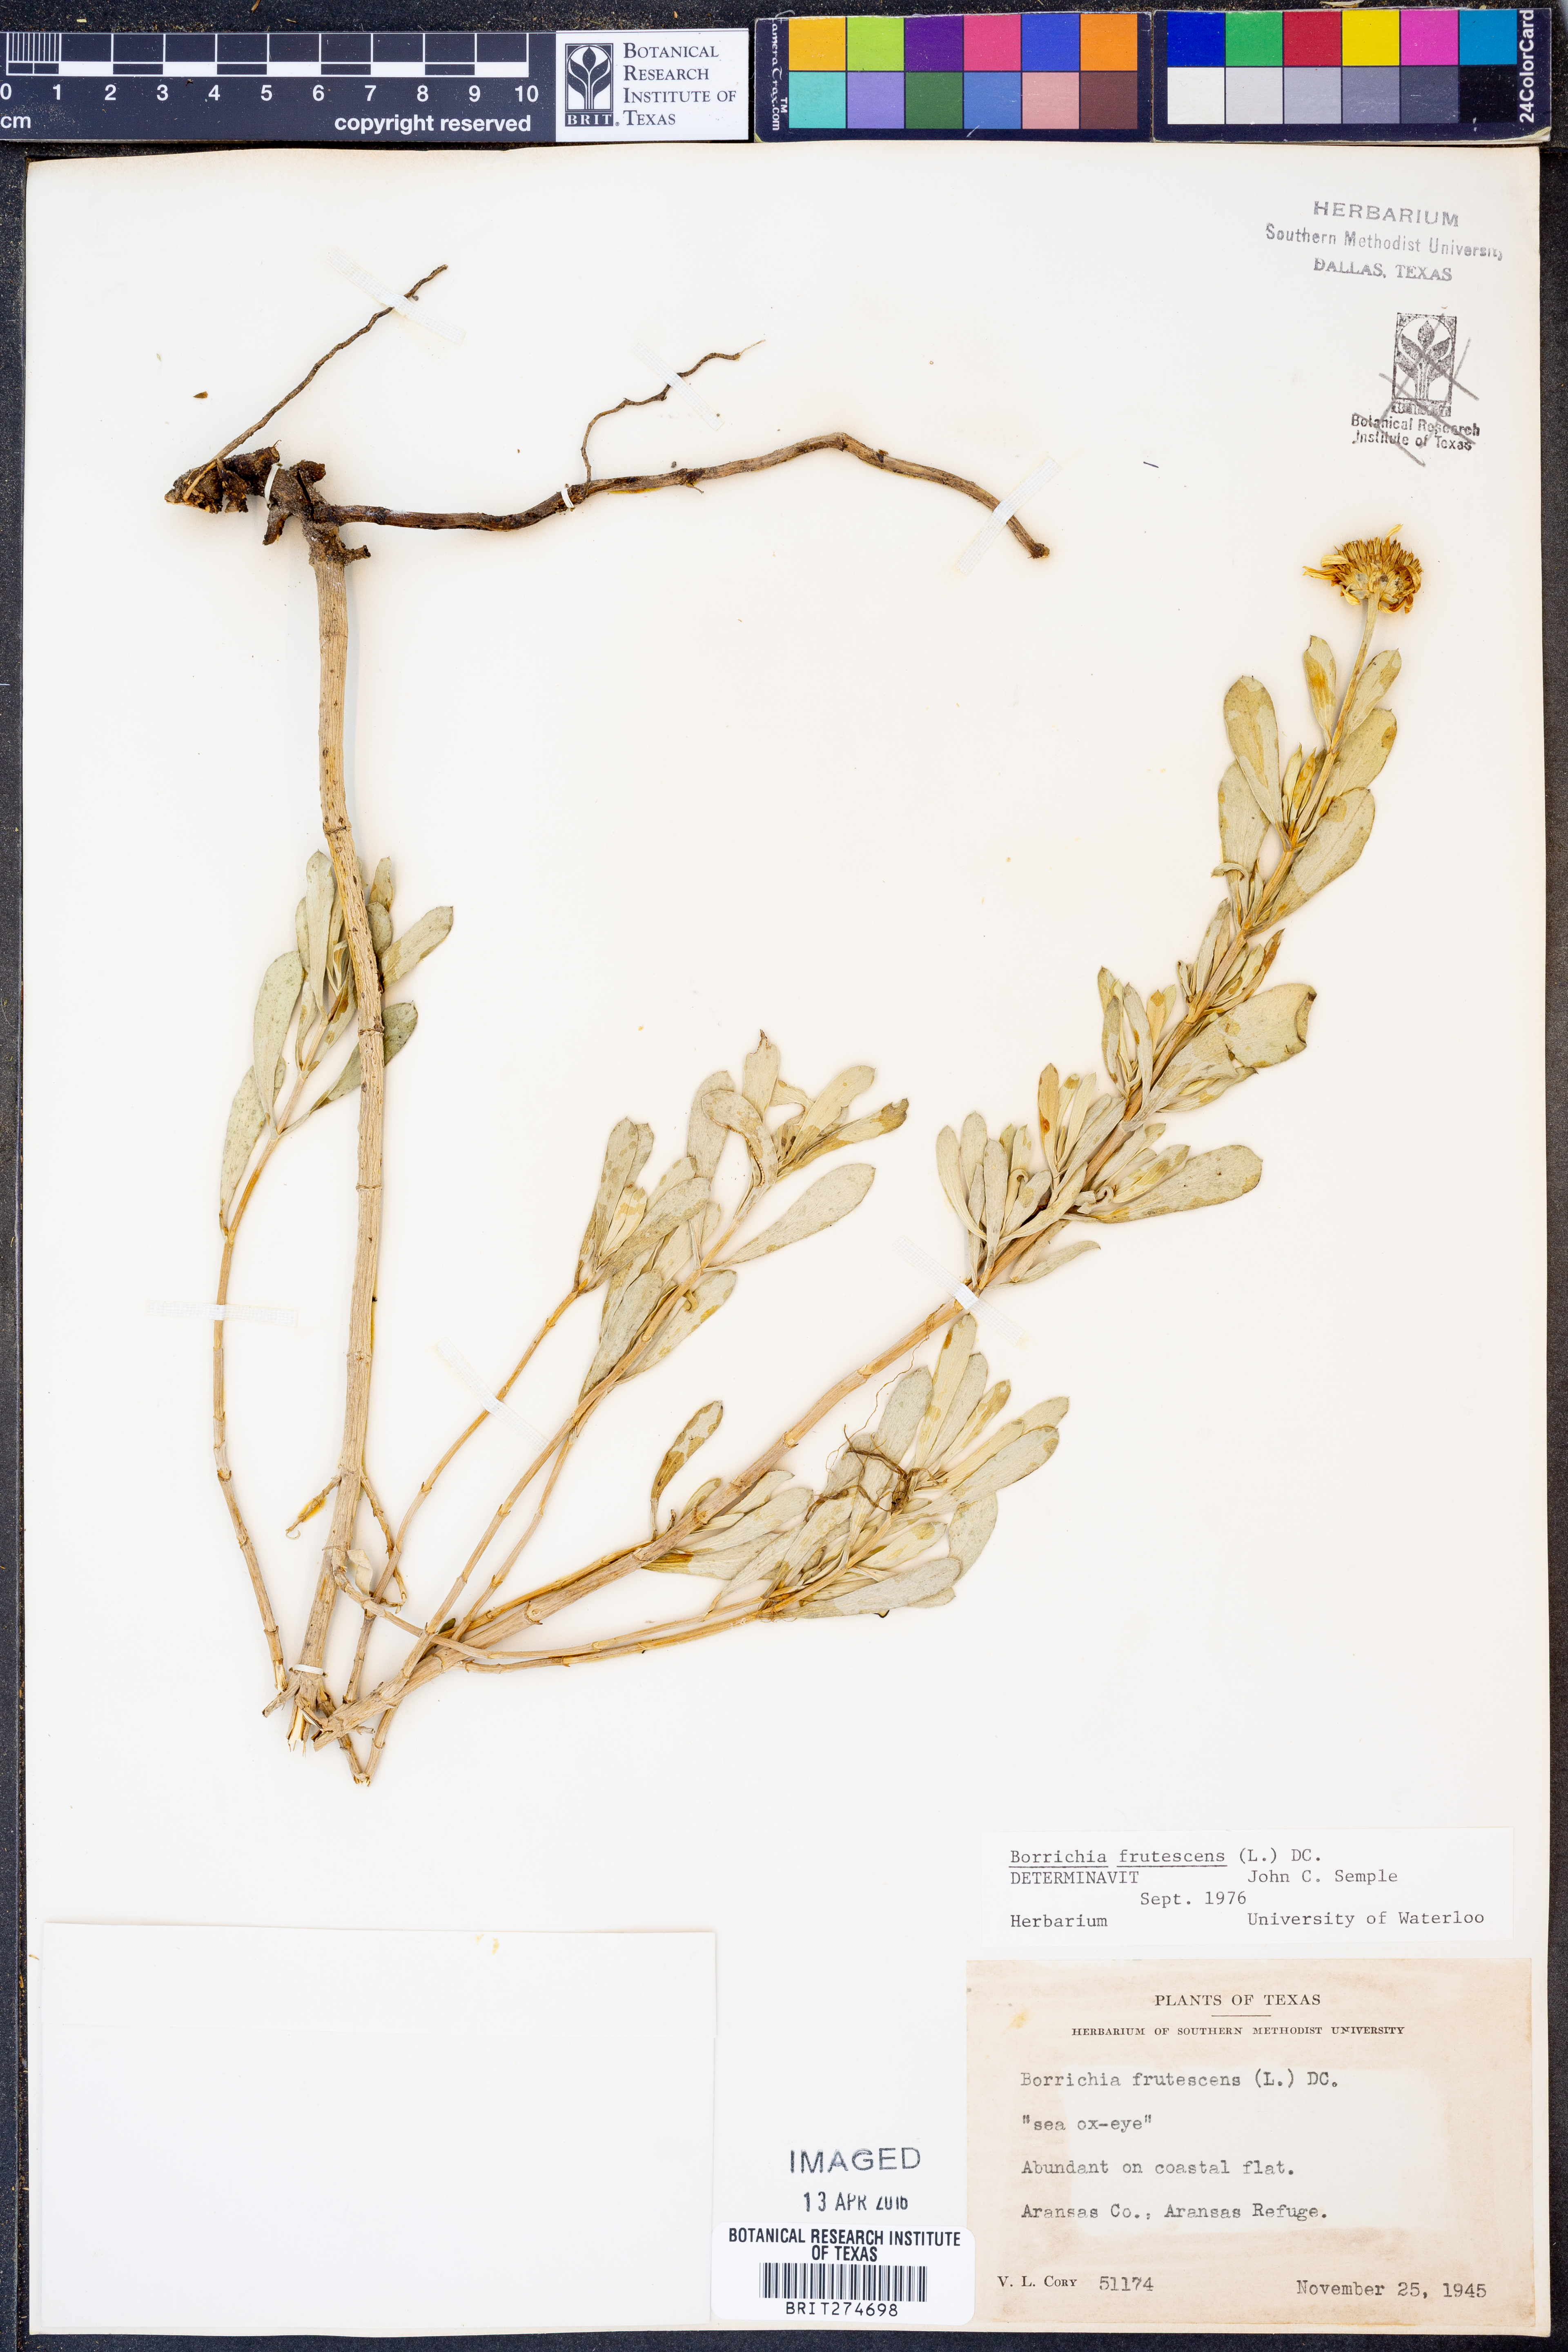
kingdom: Plantae
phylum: Tracheophyta
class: Magnoliopsida
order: Asterales
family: Asteraceae
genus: Borrichia
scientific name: Borrichia frutescens
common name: Sea oxeye
